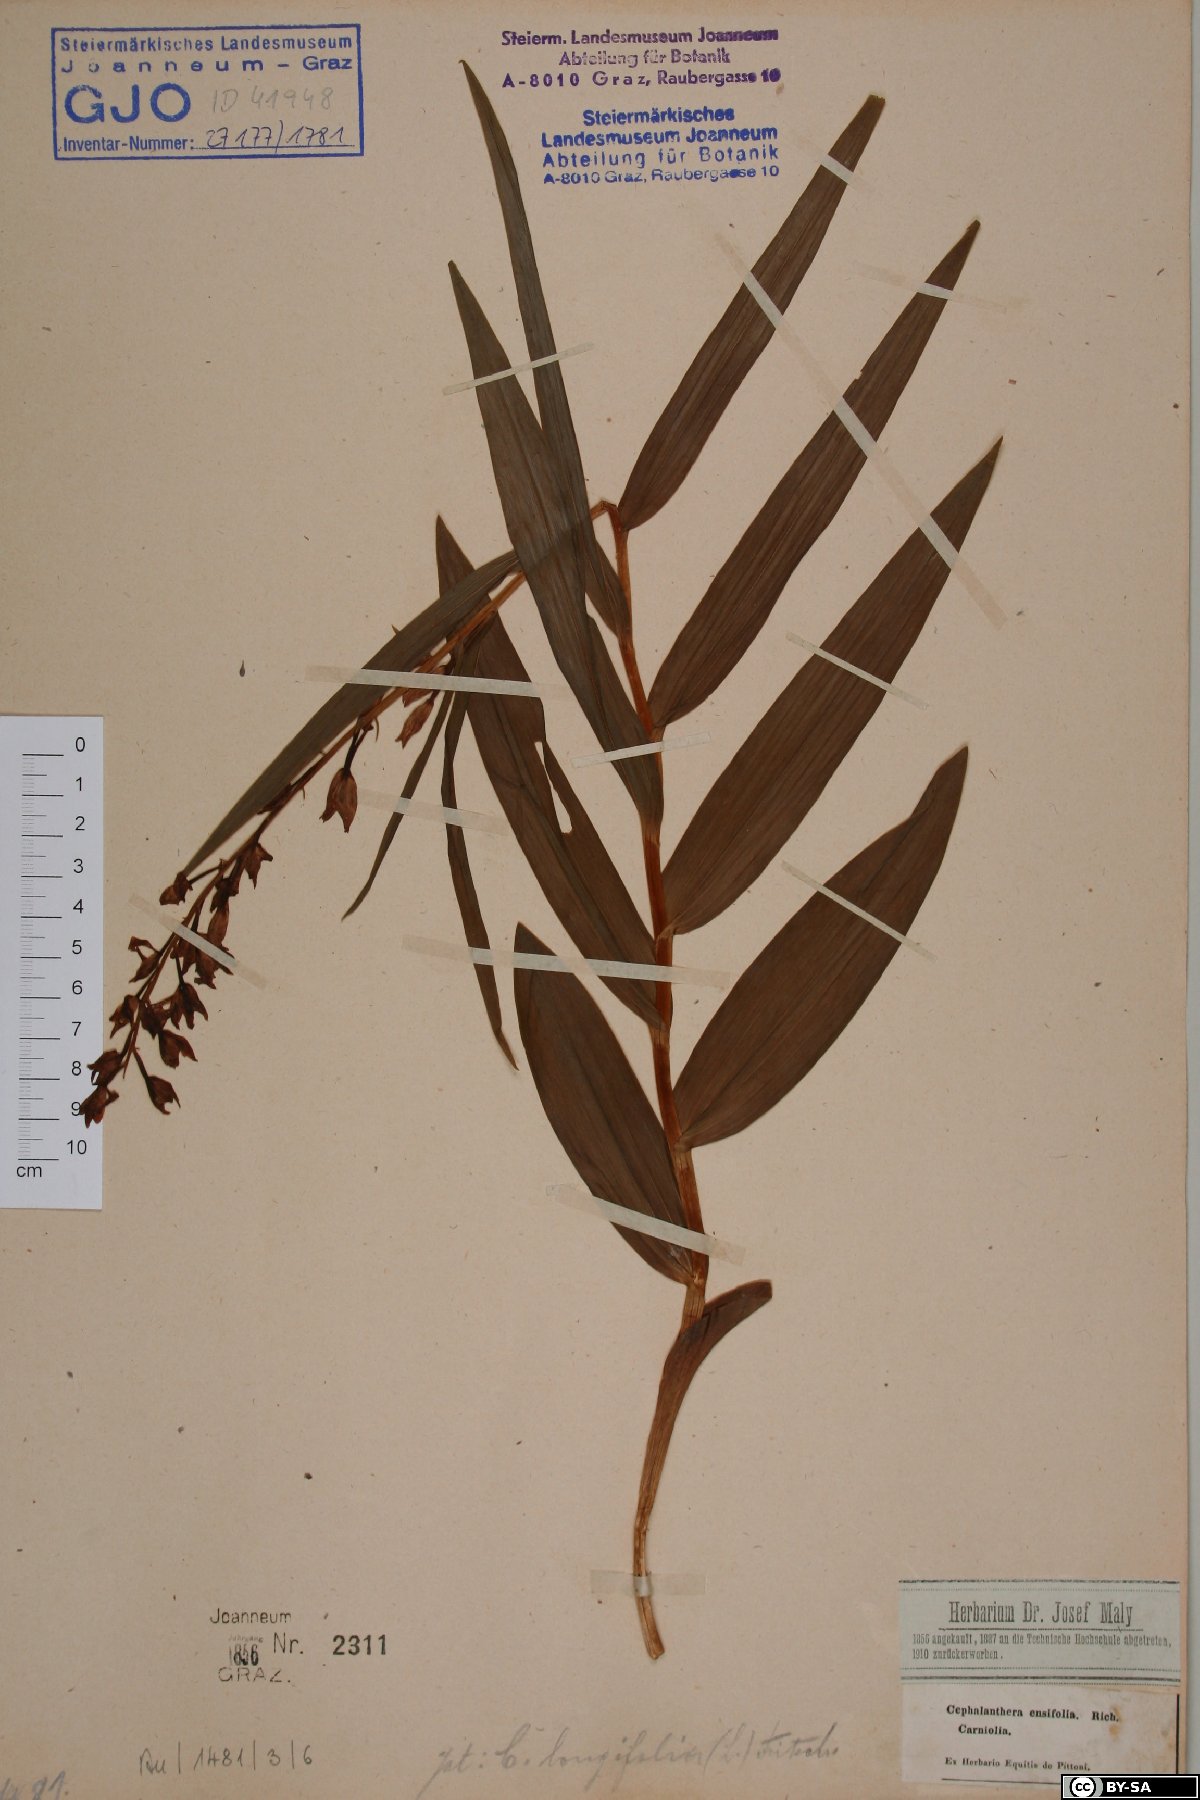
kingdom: Plantae
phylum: Tracheophyta
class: Liliopsida
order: Asparagales
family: Orchidaceae
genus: Cephalanthera
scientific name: Cephalanthera longifolia
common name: Narrow-leaved helleborine
